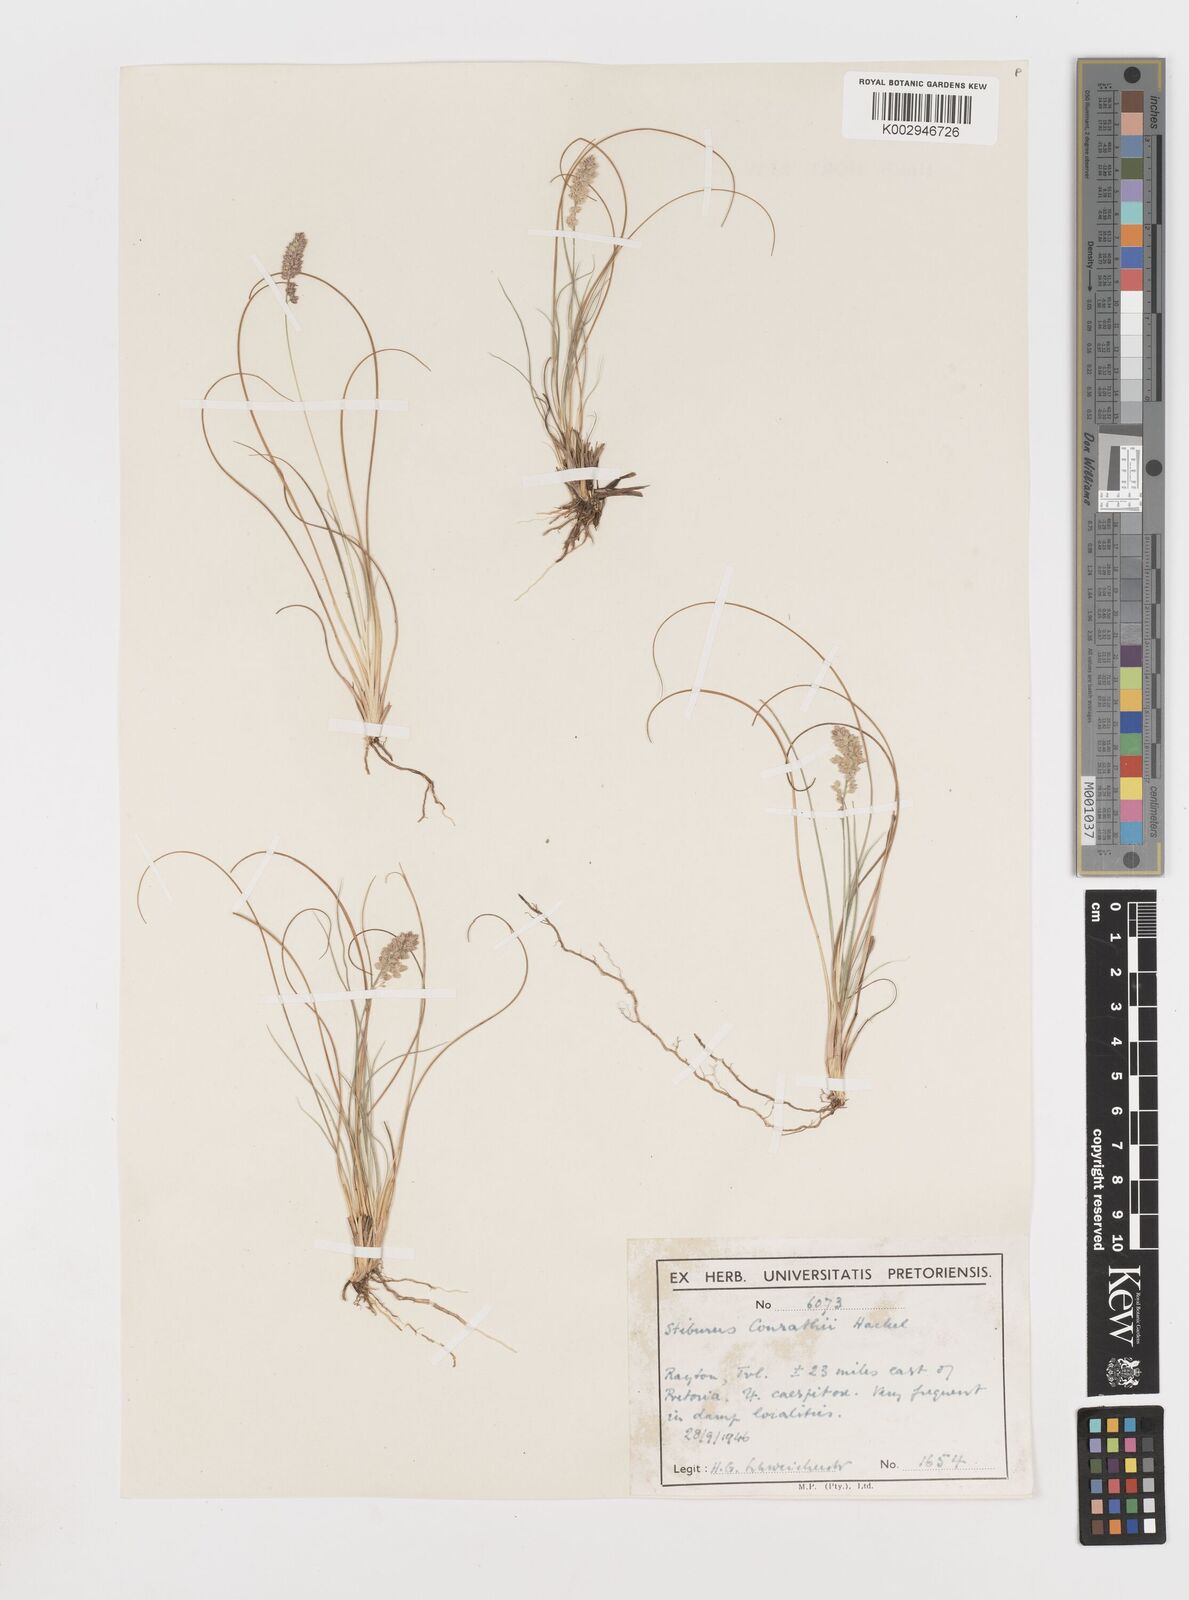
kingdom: Plantae
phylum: Tracheophyta
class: Liliopsida
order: Poales
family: Poaceae
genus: Stiburus
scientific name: Stiburus conrathii
